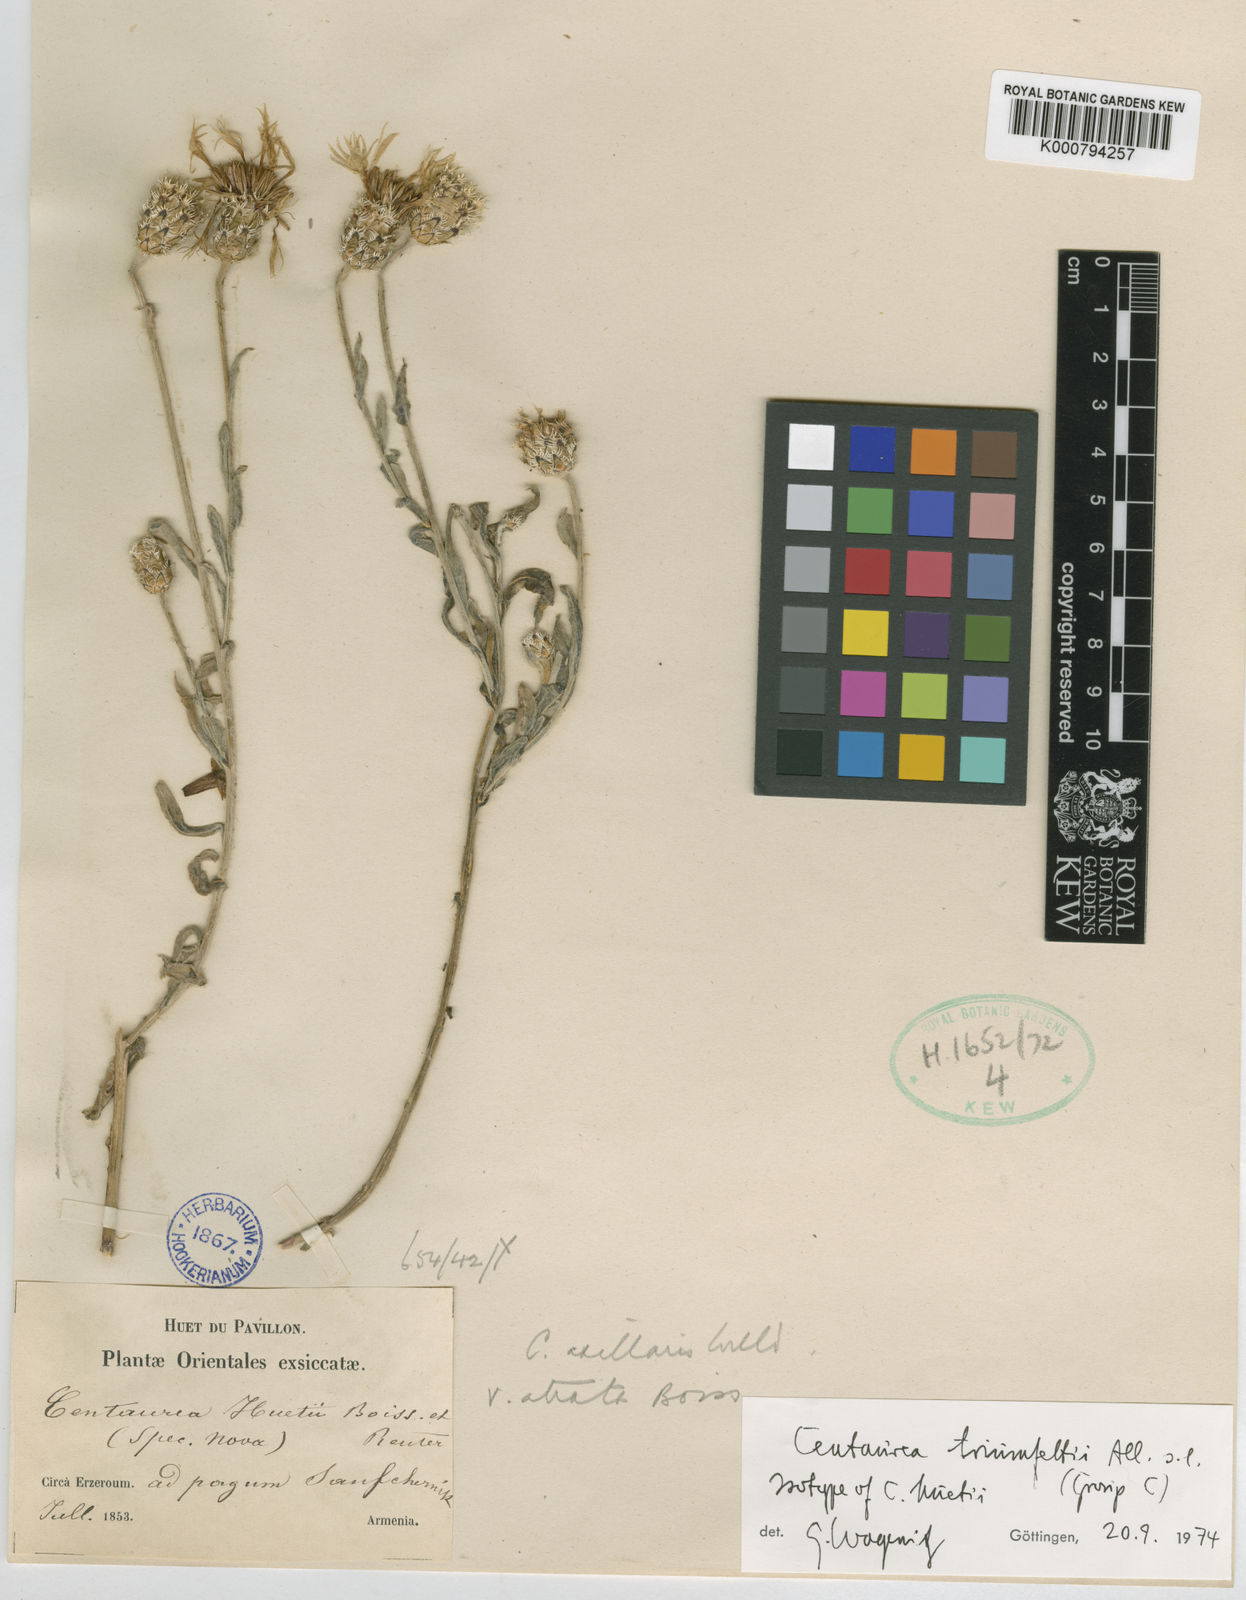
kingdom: Plantae
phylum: Tracheophyta
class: Magnoliopsida
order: Asterales
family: Asteraceae
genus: Centaurea
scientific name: Centaurea triumfettii
